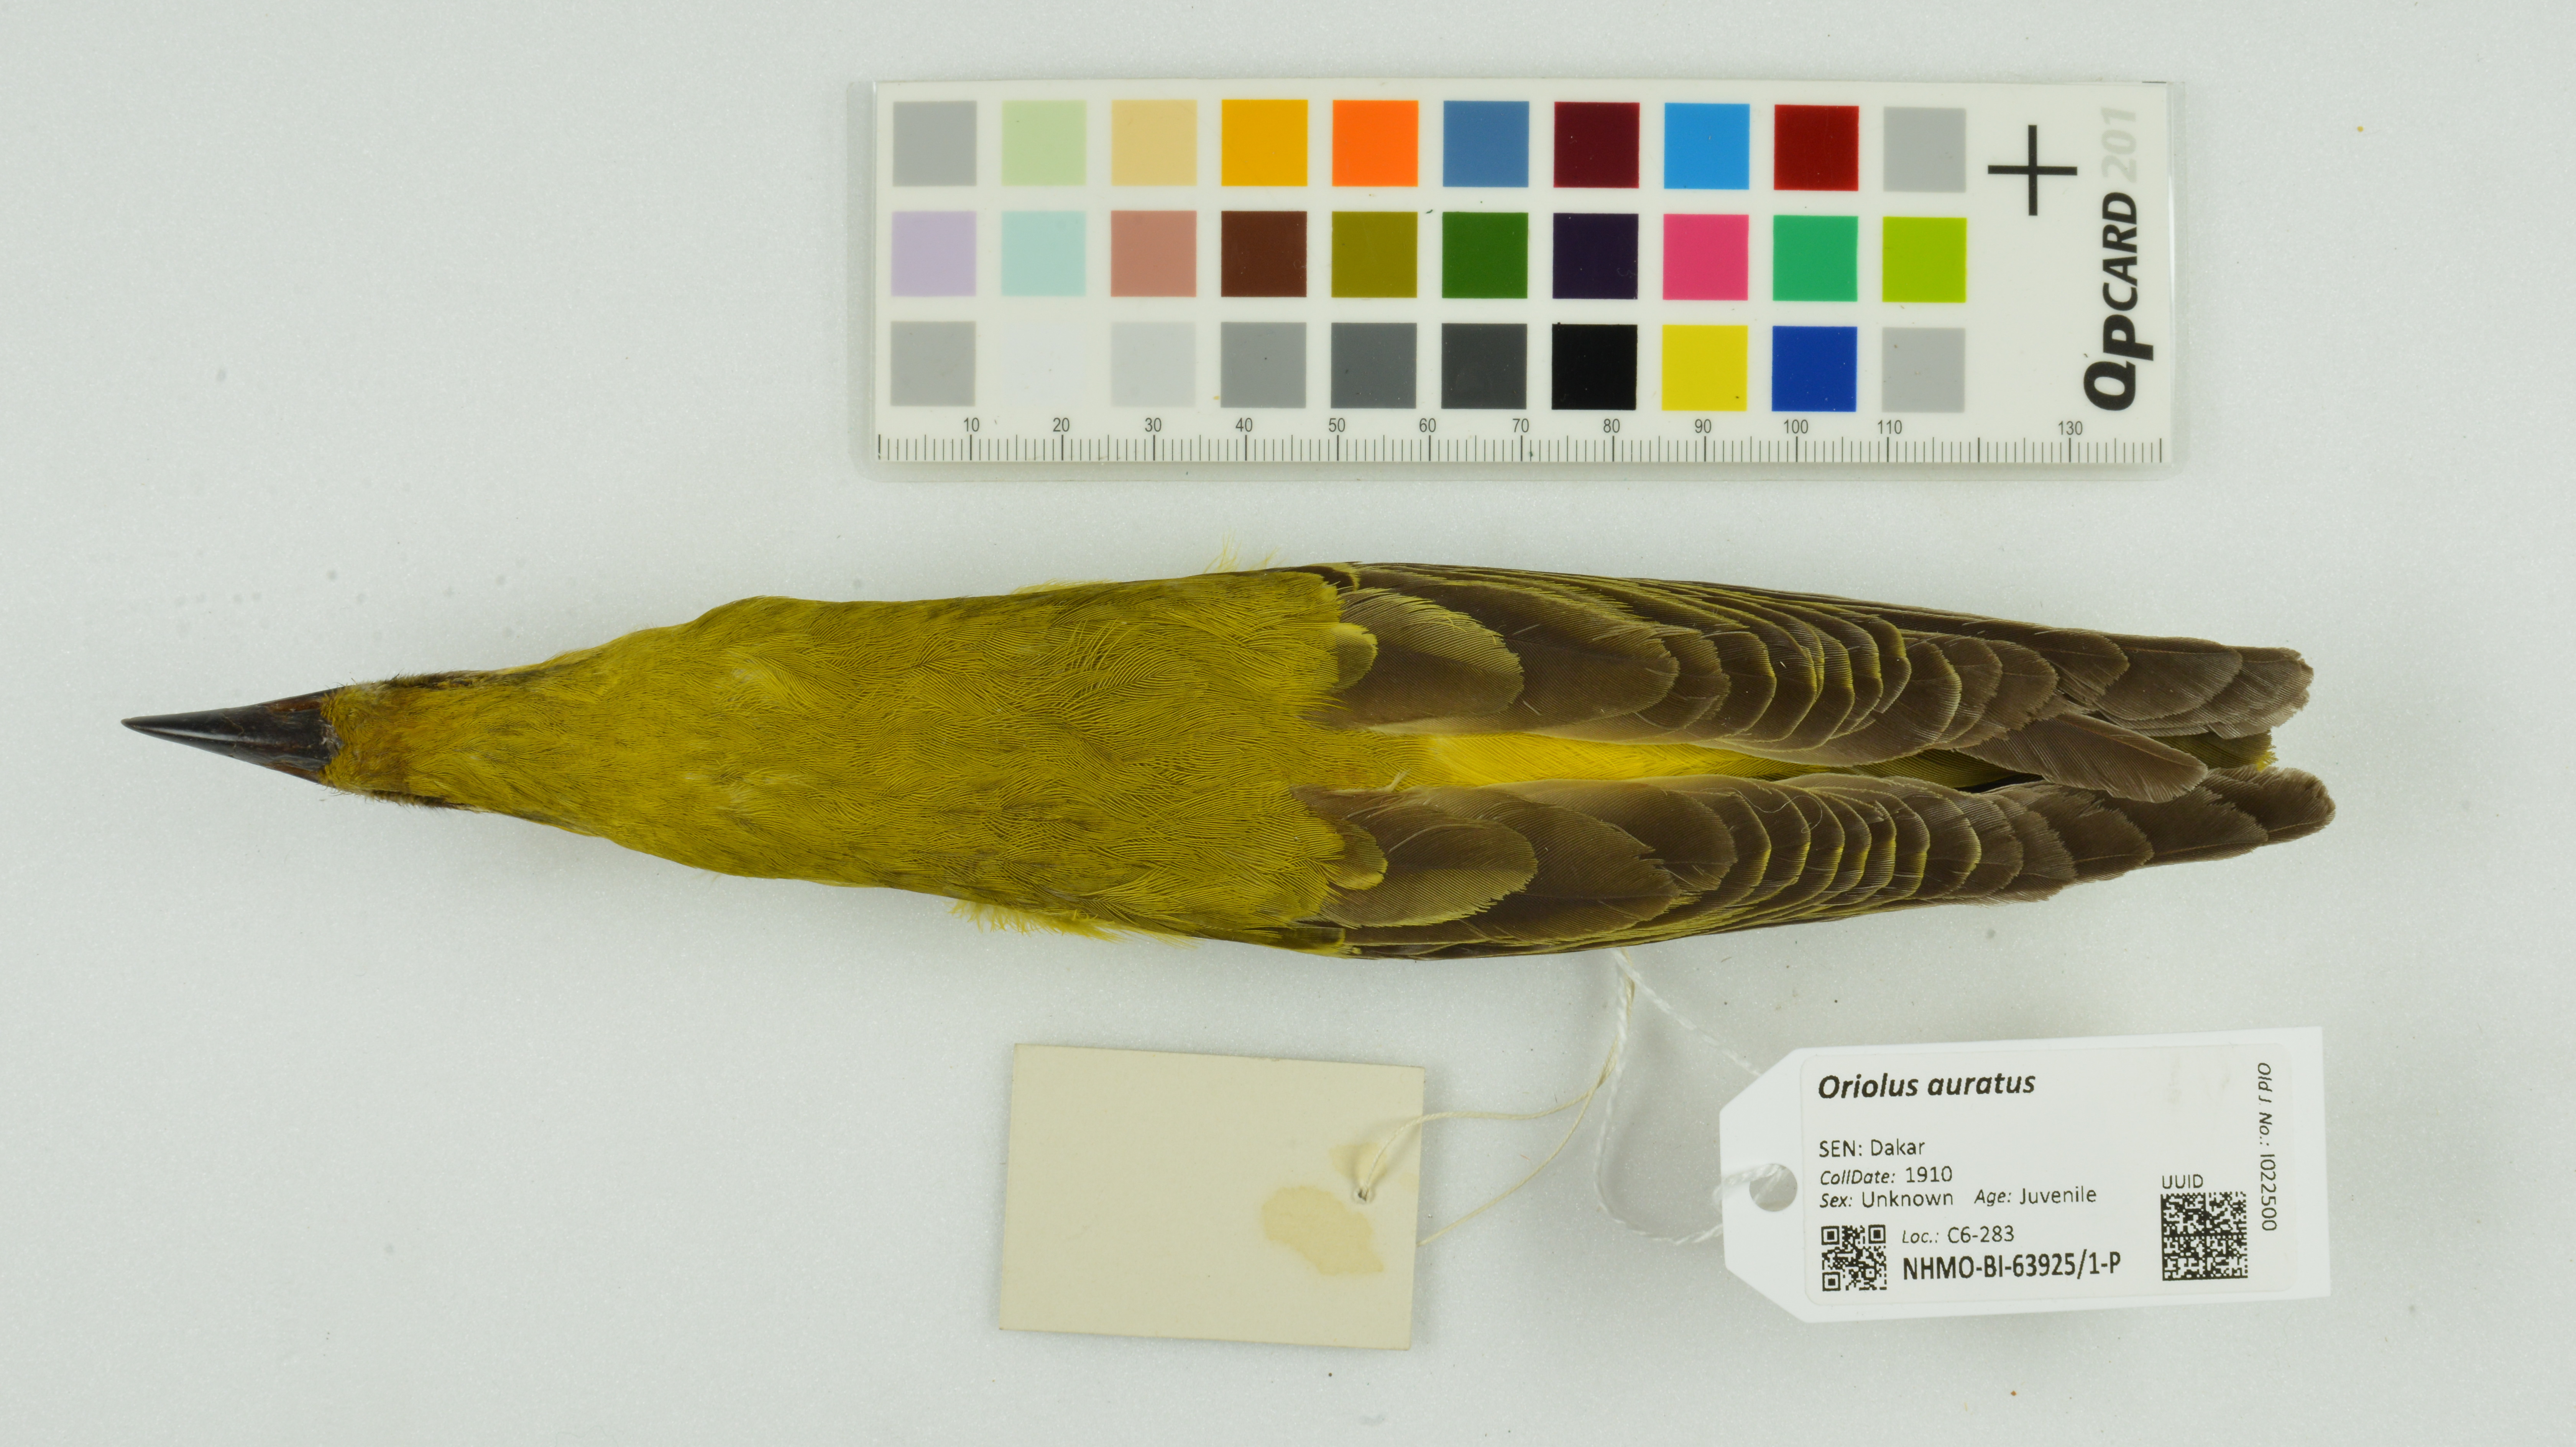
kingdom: Animalia
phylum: Chordata
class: Aves
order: Passeriformes
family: Oriolidae
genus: Oriolus
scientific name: Oriolus auratus
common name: African golden oriole
